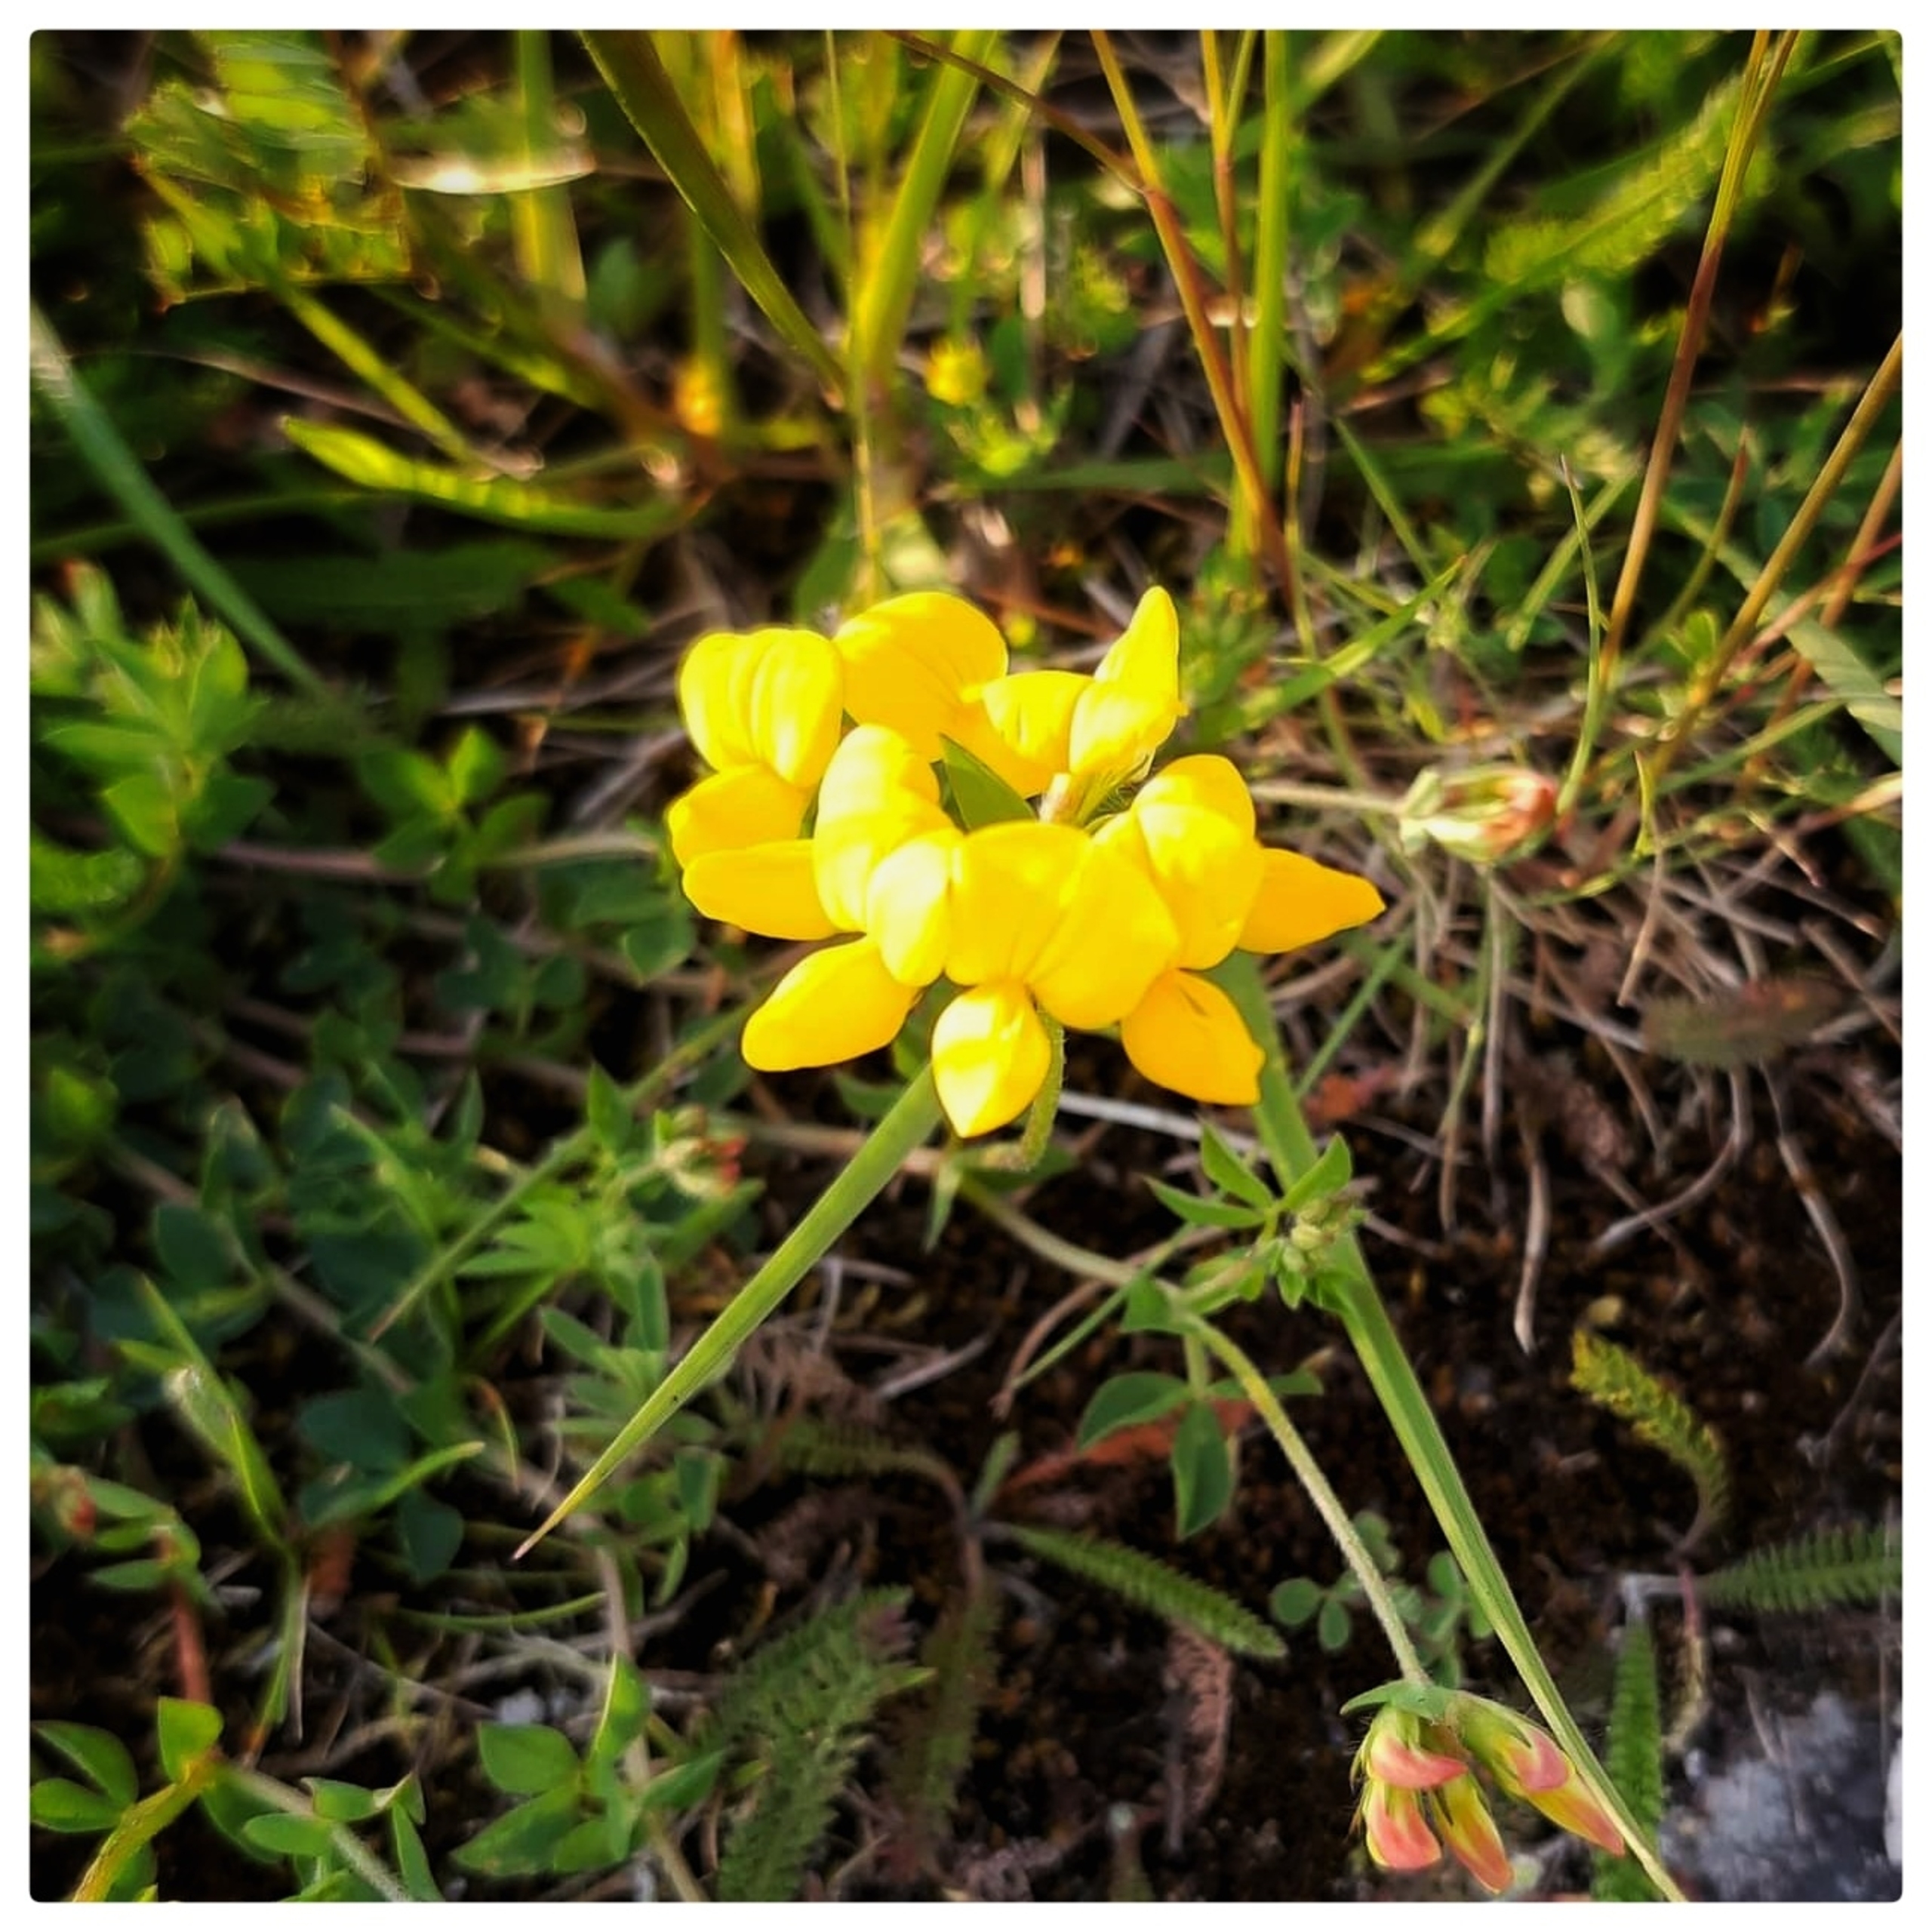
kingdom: Plantae
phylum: Tracheophyta
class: Magnoliopsida
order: Fabales
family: Fabaceae
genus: Lotus
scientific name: Lotus corniculatus
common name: Almindelig kællingetand
